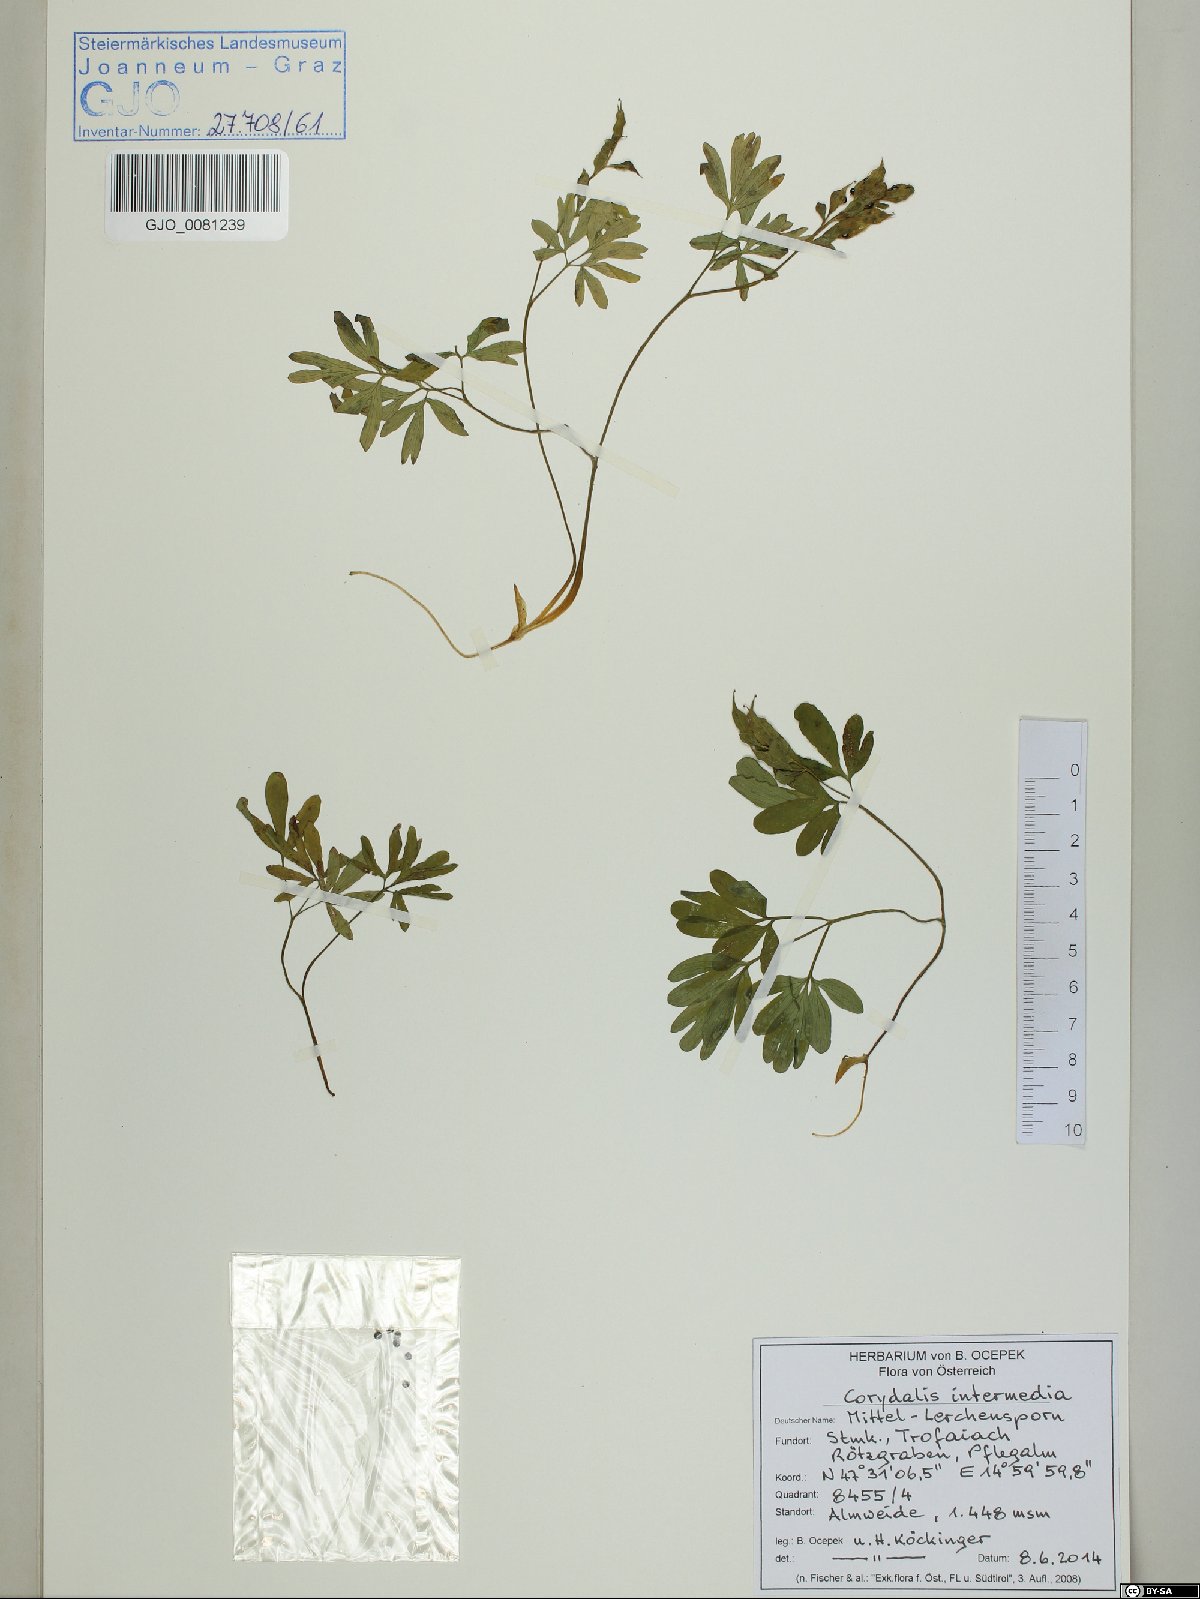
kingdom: Plantae
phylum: Tracheophyta
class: Magnoliopsida
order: Ranunculales
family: Papaveraceae
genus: Corydalis
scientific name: Corydalis intermedia
